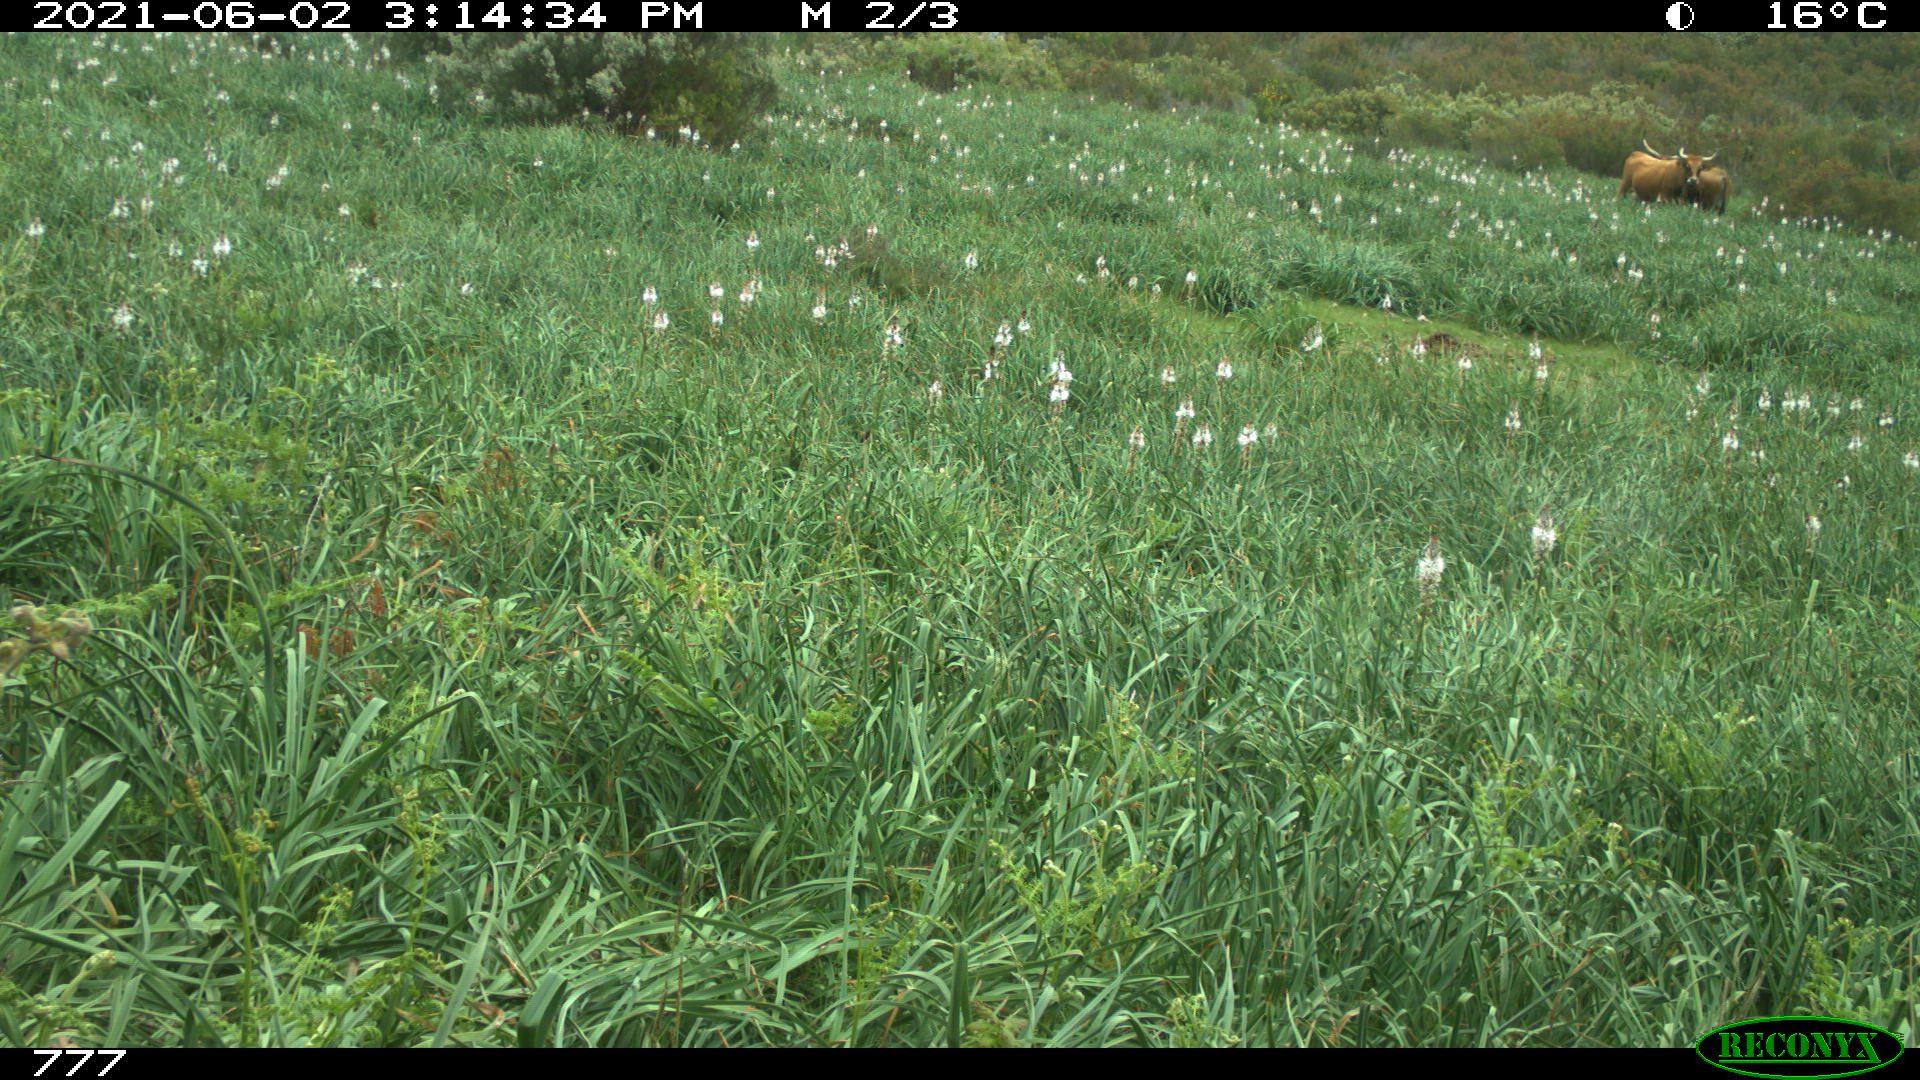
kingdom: Animalia
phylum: Chordata
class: Mammalia
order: Artiodactyla
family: Bovidae
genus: Bos
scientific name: Bos taurus
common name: Domesticated cattle
